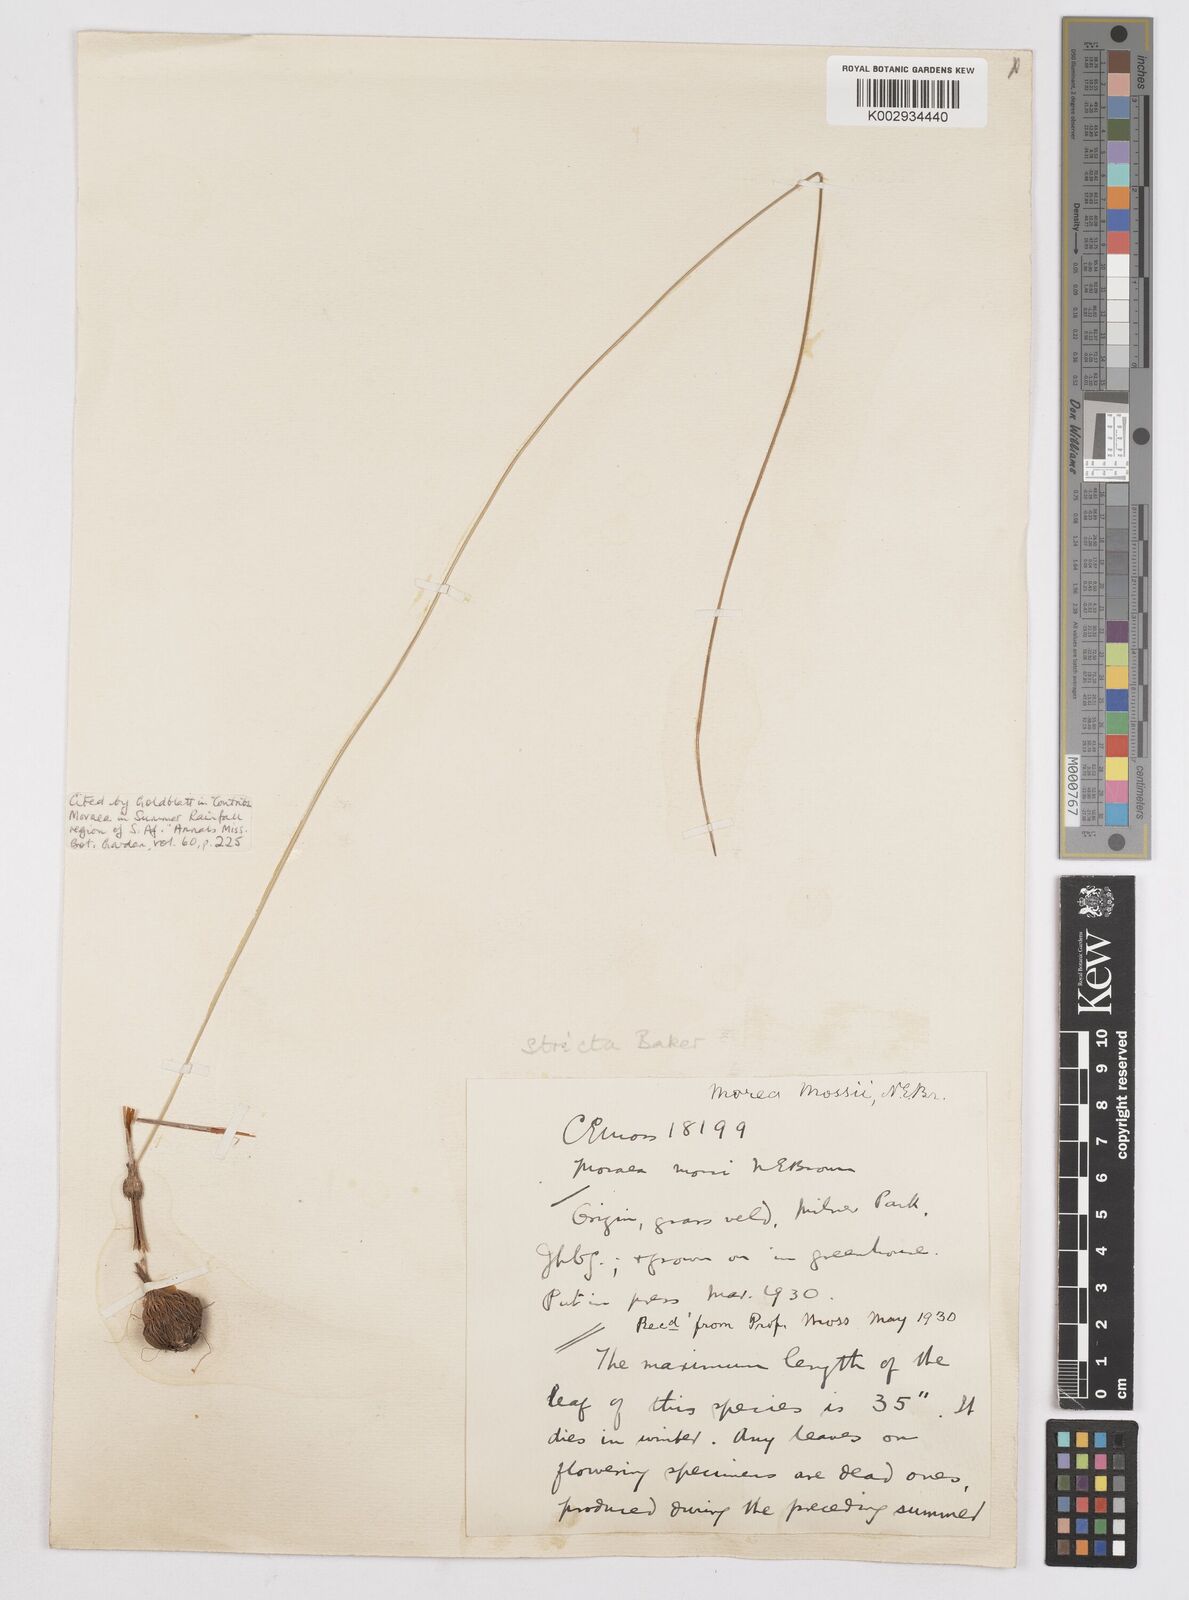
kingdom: Plantae
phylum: Tracheophyta
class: Liliopsida
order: Asparagales
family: Iridaceae
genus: Moraea
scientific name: Moraea stricta
